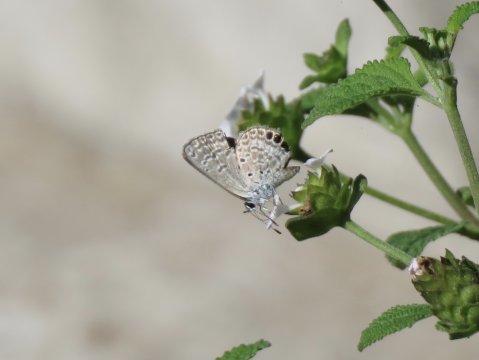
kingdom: Animalia
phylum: Arthropoda
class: Insecta
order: Lepidoptera
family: Lycaenidae
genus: Hemiargus
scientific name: Hemiargus ceraunus
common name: Ceraunus Blue
